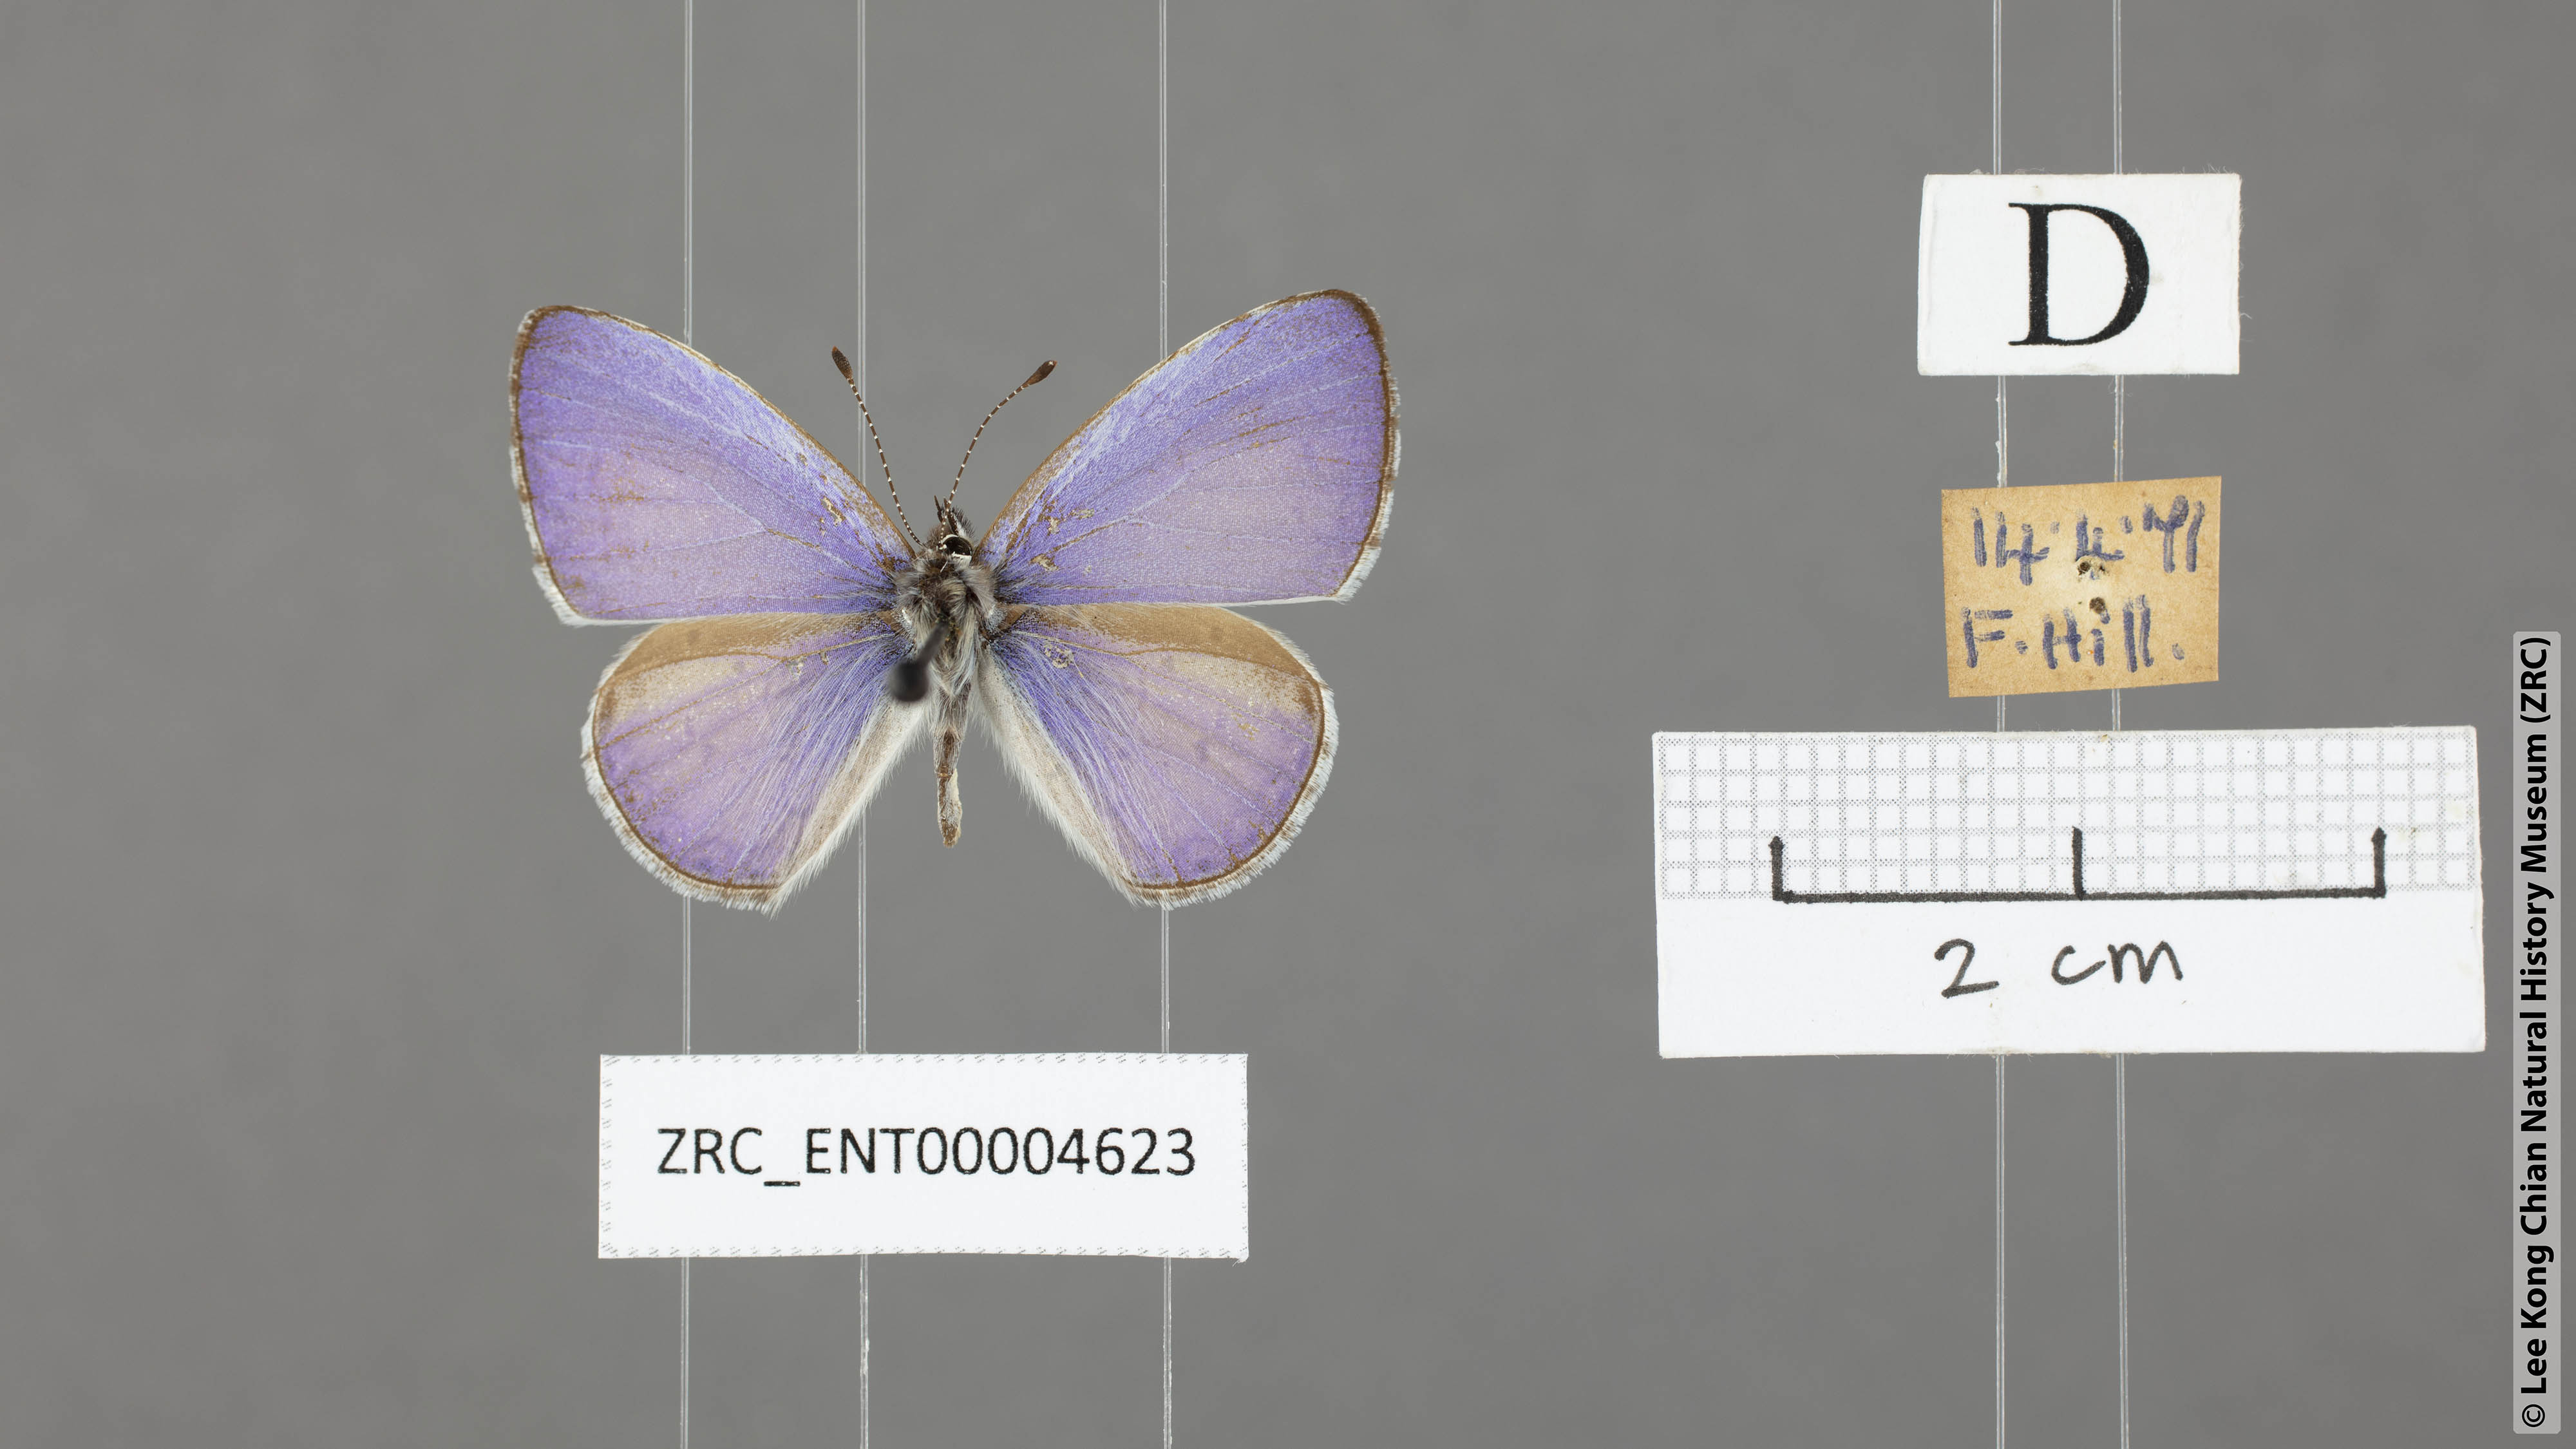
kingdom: Animalia
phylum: Arthropoda
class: Insecta
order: Lepidoptera
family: Lycaenidae
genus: Udara
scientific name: Udara dilectus
